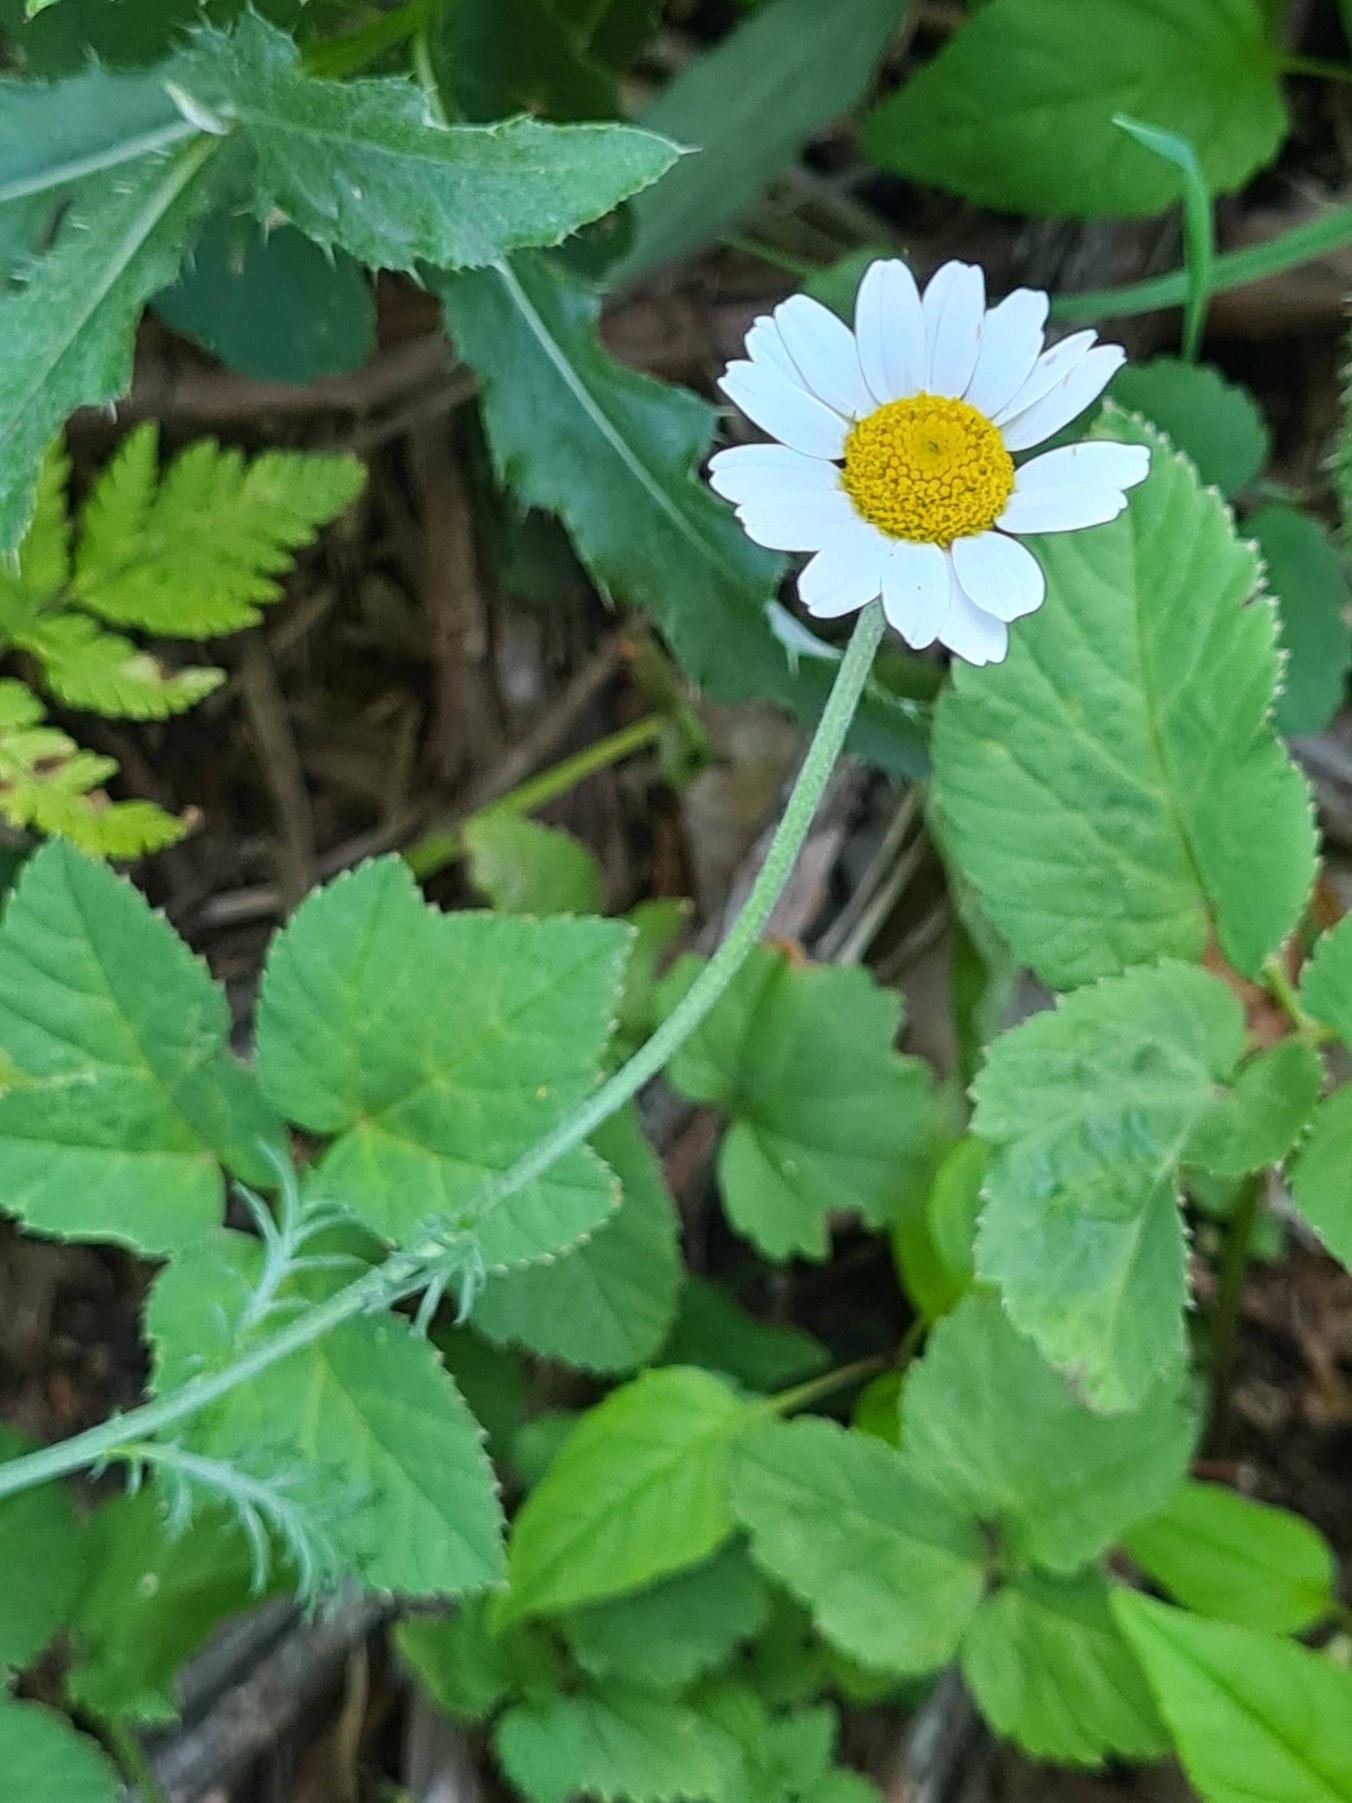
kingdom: Plantae
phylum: Tracheophyta
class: Magnoliopsida
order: Asterales
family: Asteraceae
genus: Anthemis
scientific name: Anthemis arvensis
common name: Ager-gåseurt
